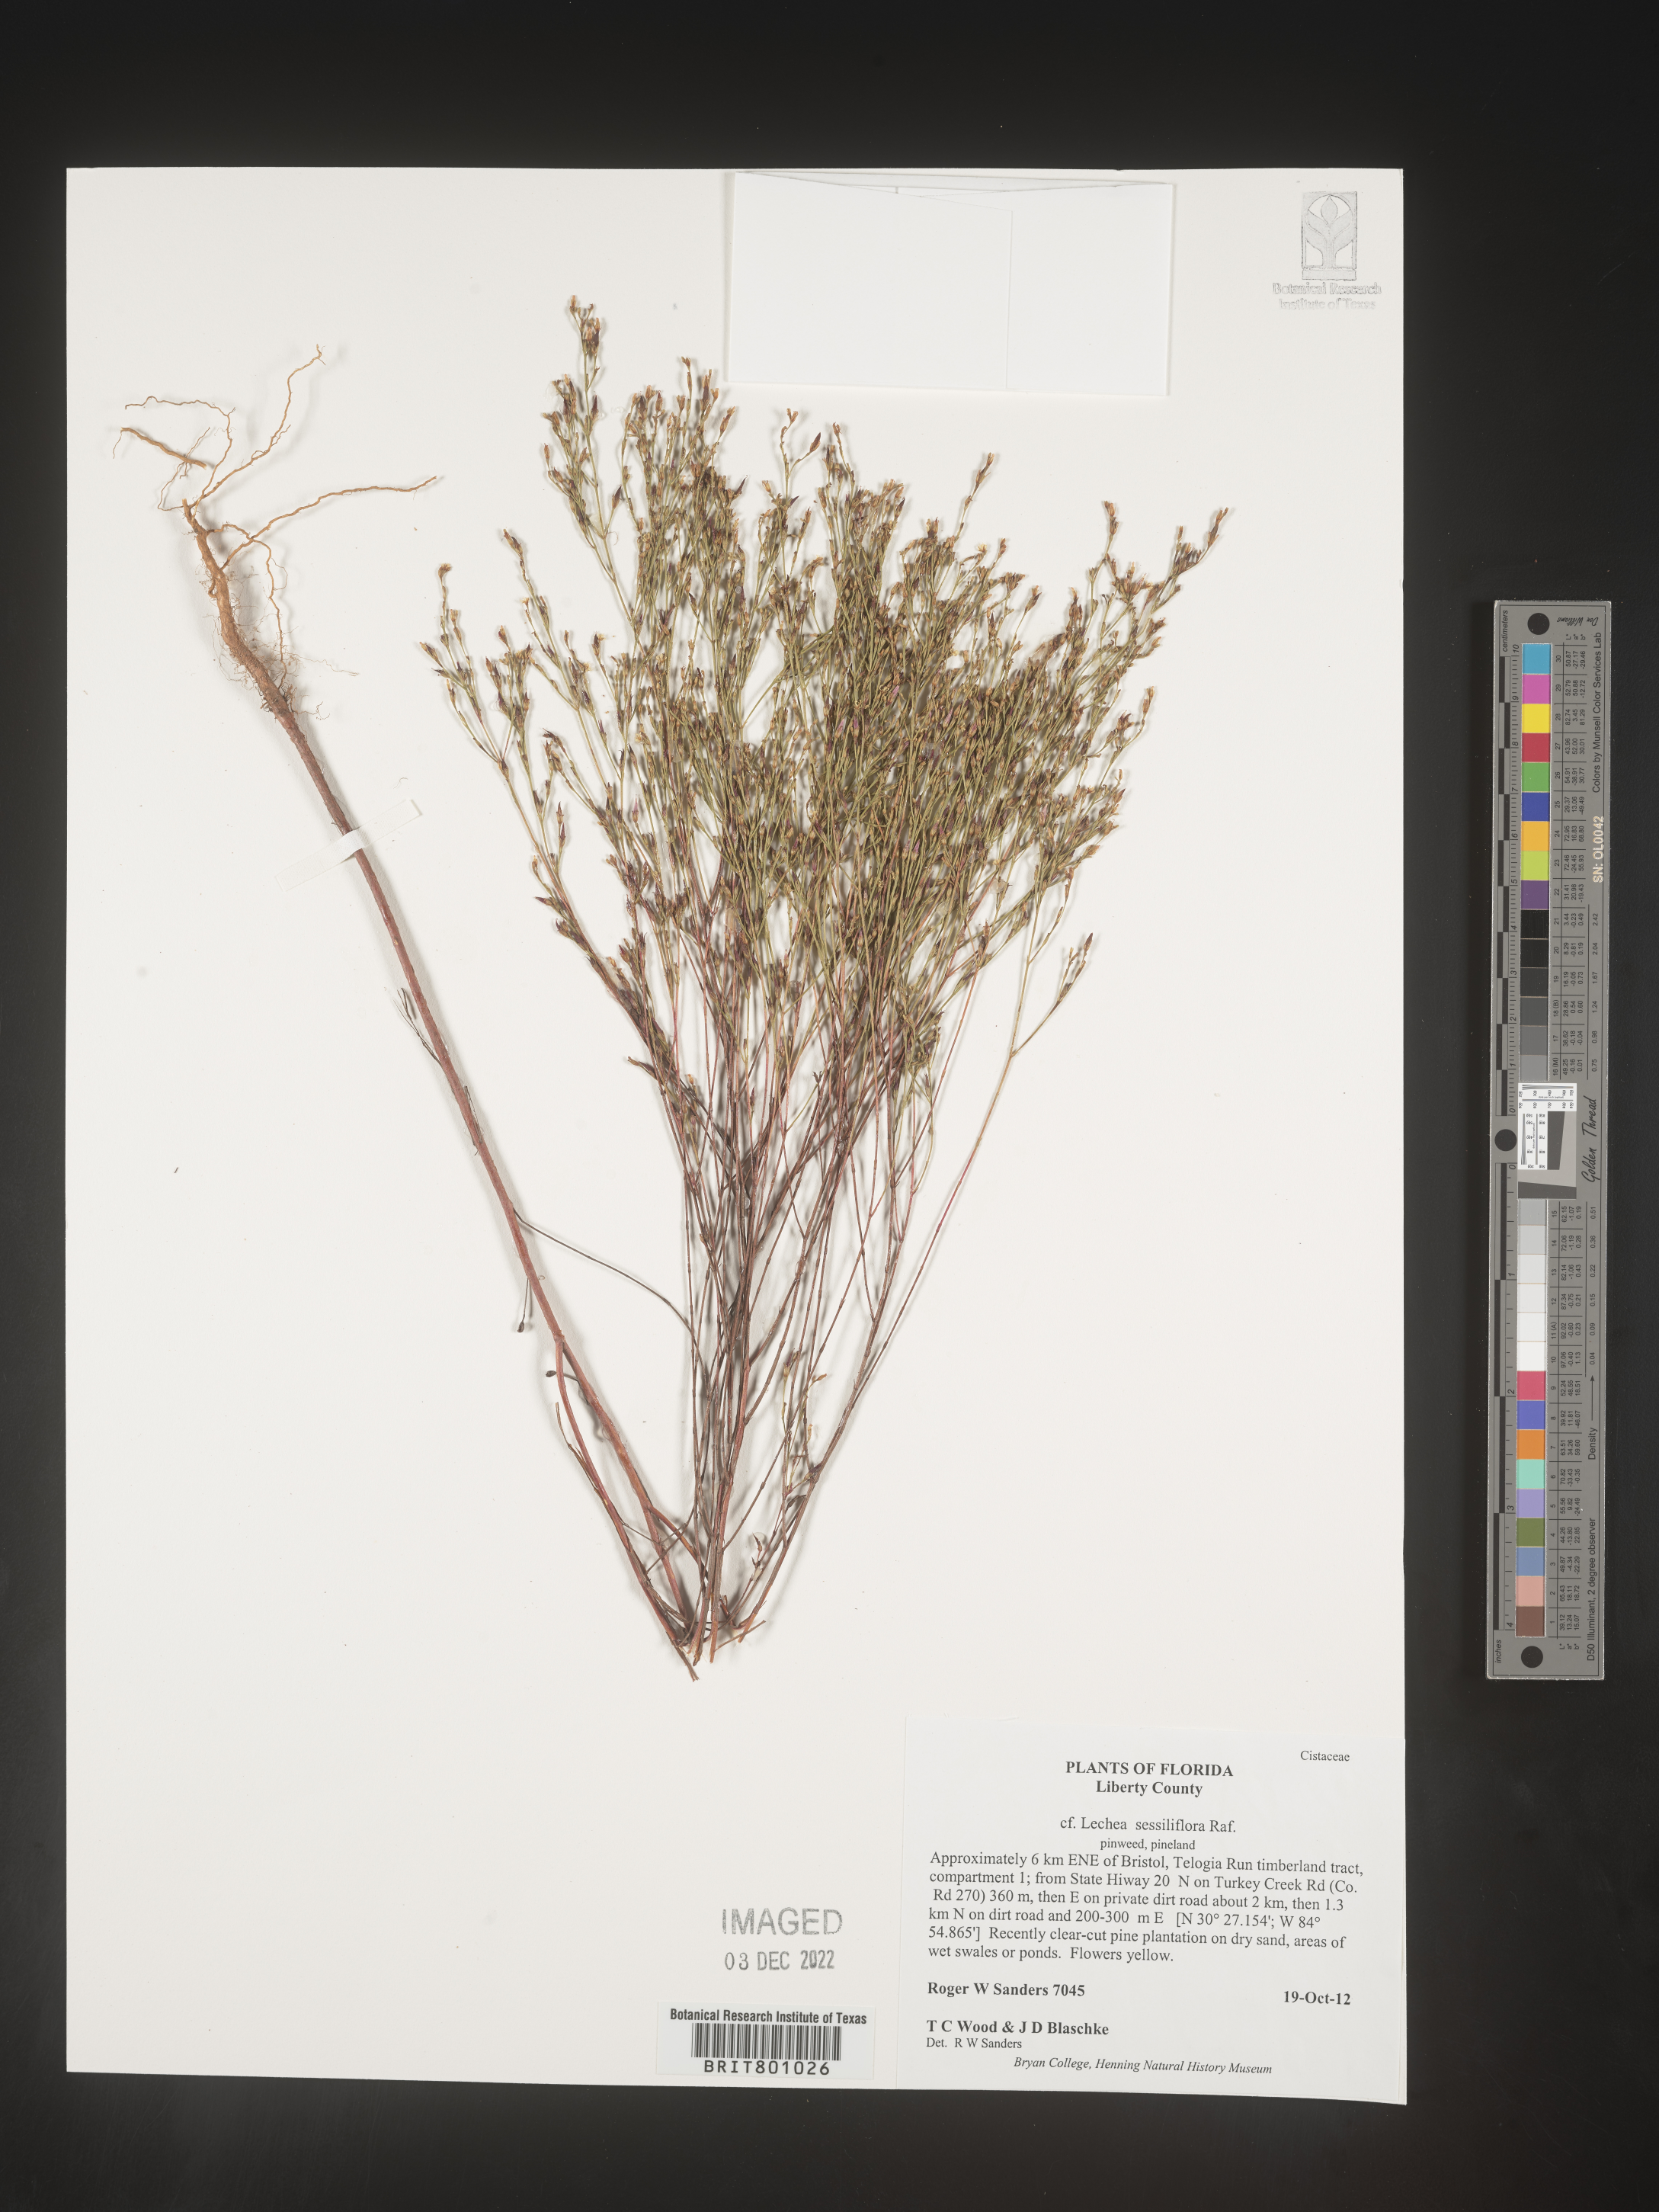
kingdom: Plantae
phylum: Tracheophyta
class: Magnoliopsida
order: Malvales
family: Cistaceae
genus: Lechea
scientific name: Lechea
